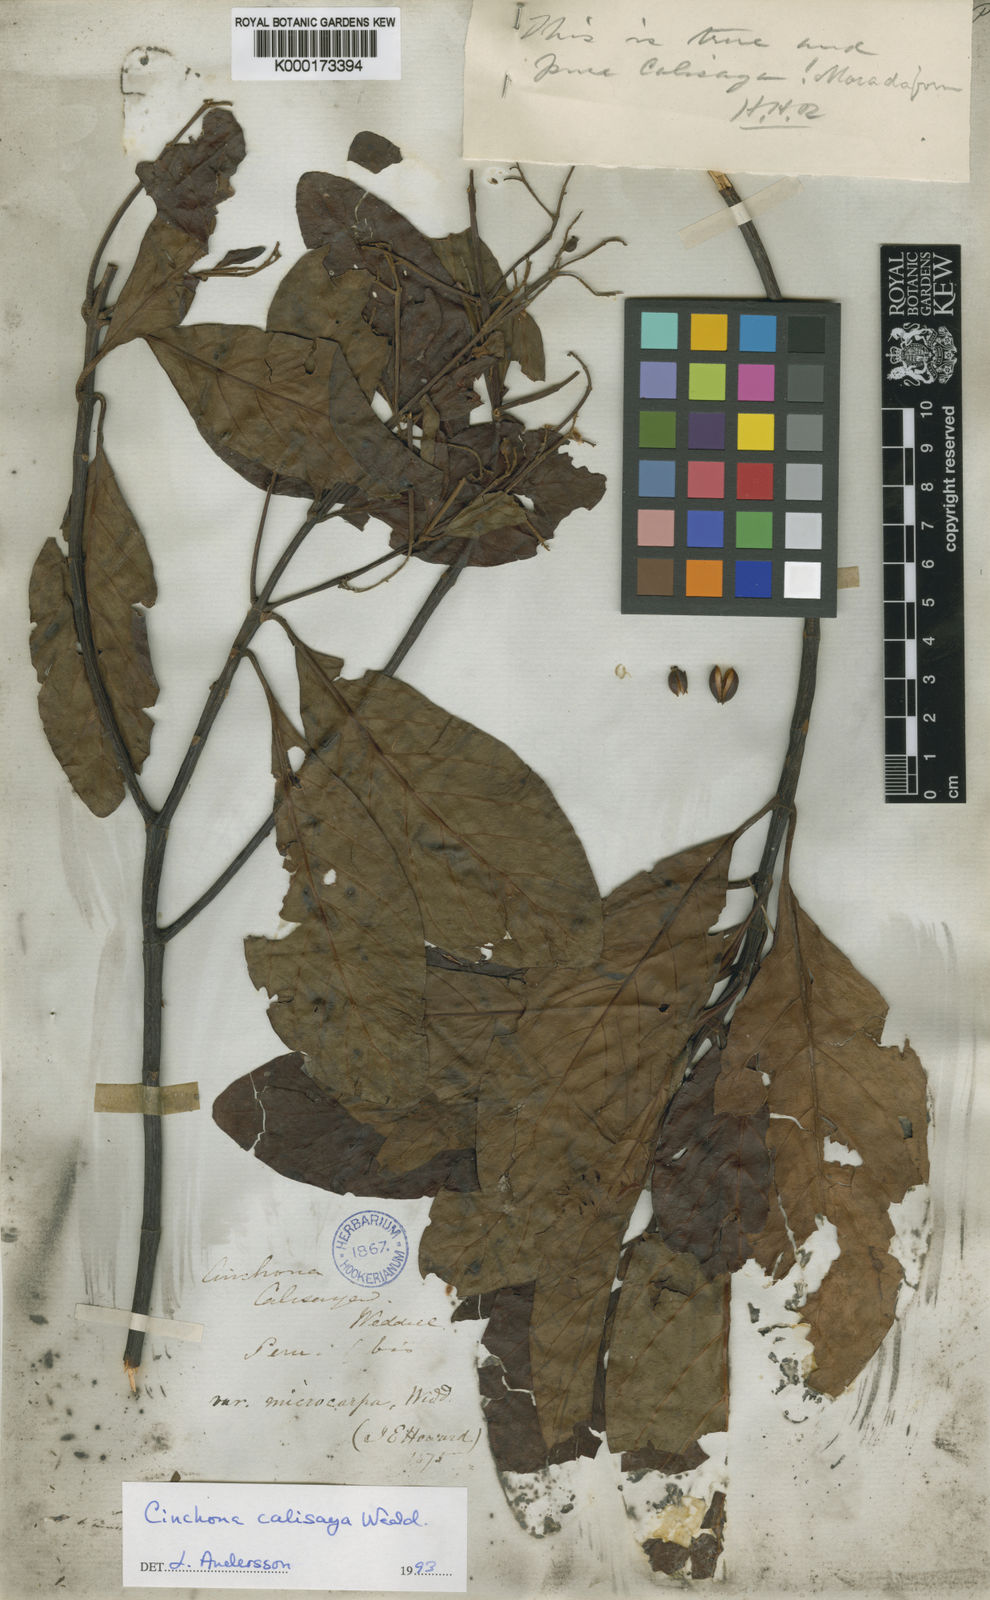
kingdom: Plantae
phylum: Tracheophyta
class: Magnoliopsida
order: Gentianales
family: Rubiaceae
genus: Cinchona
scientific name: Cinchona calisaya
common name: Ledgerbark
